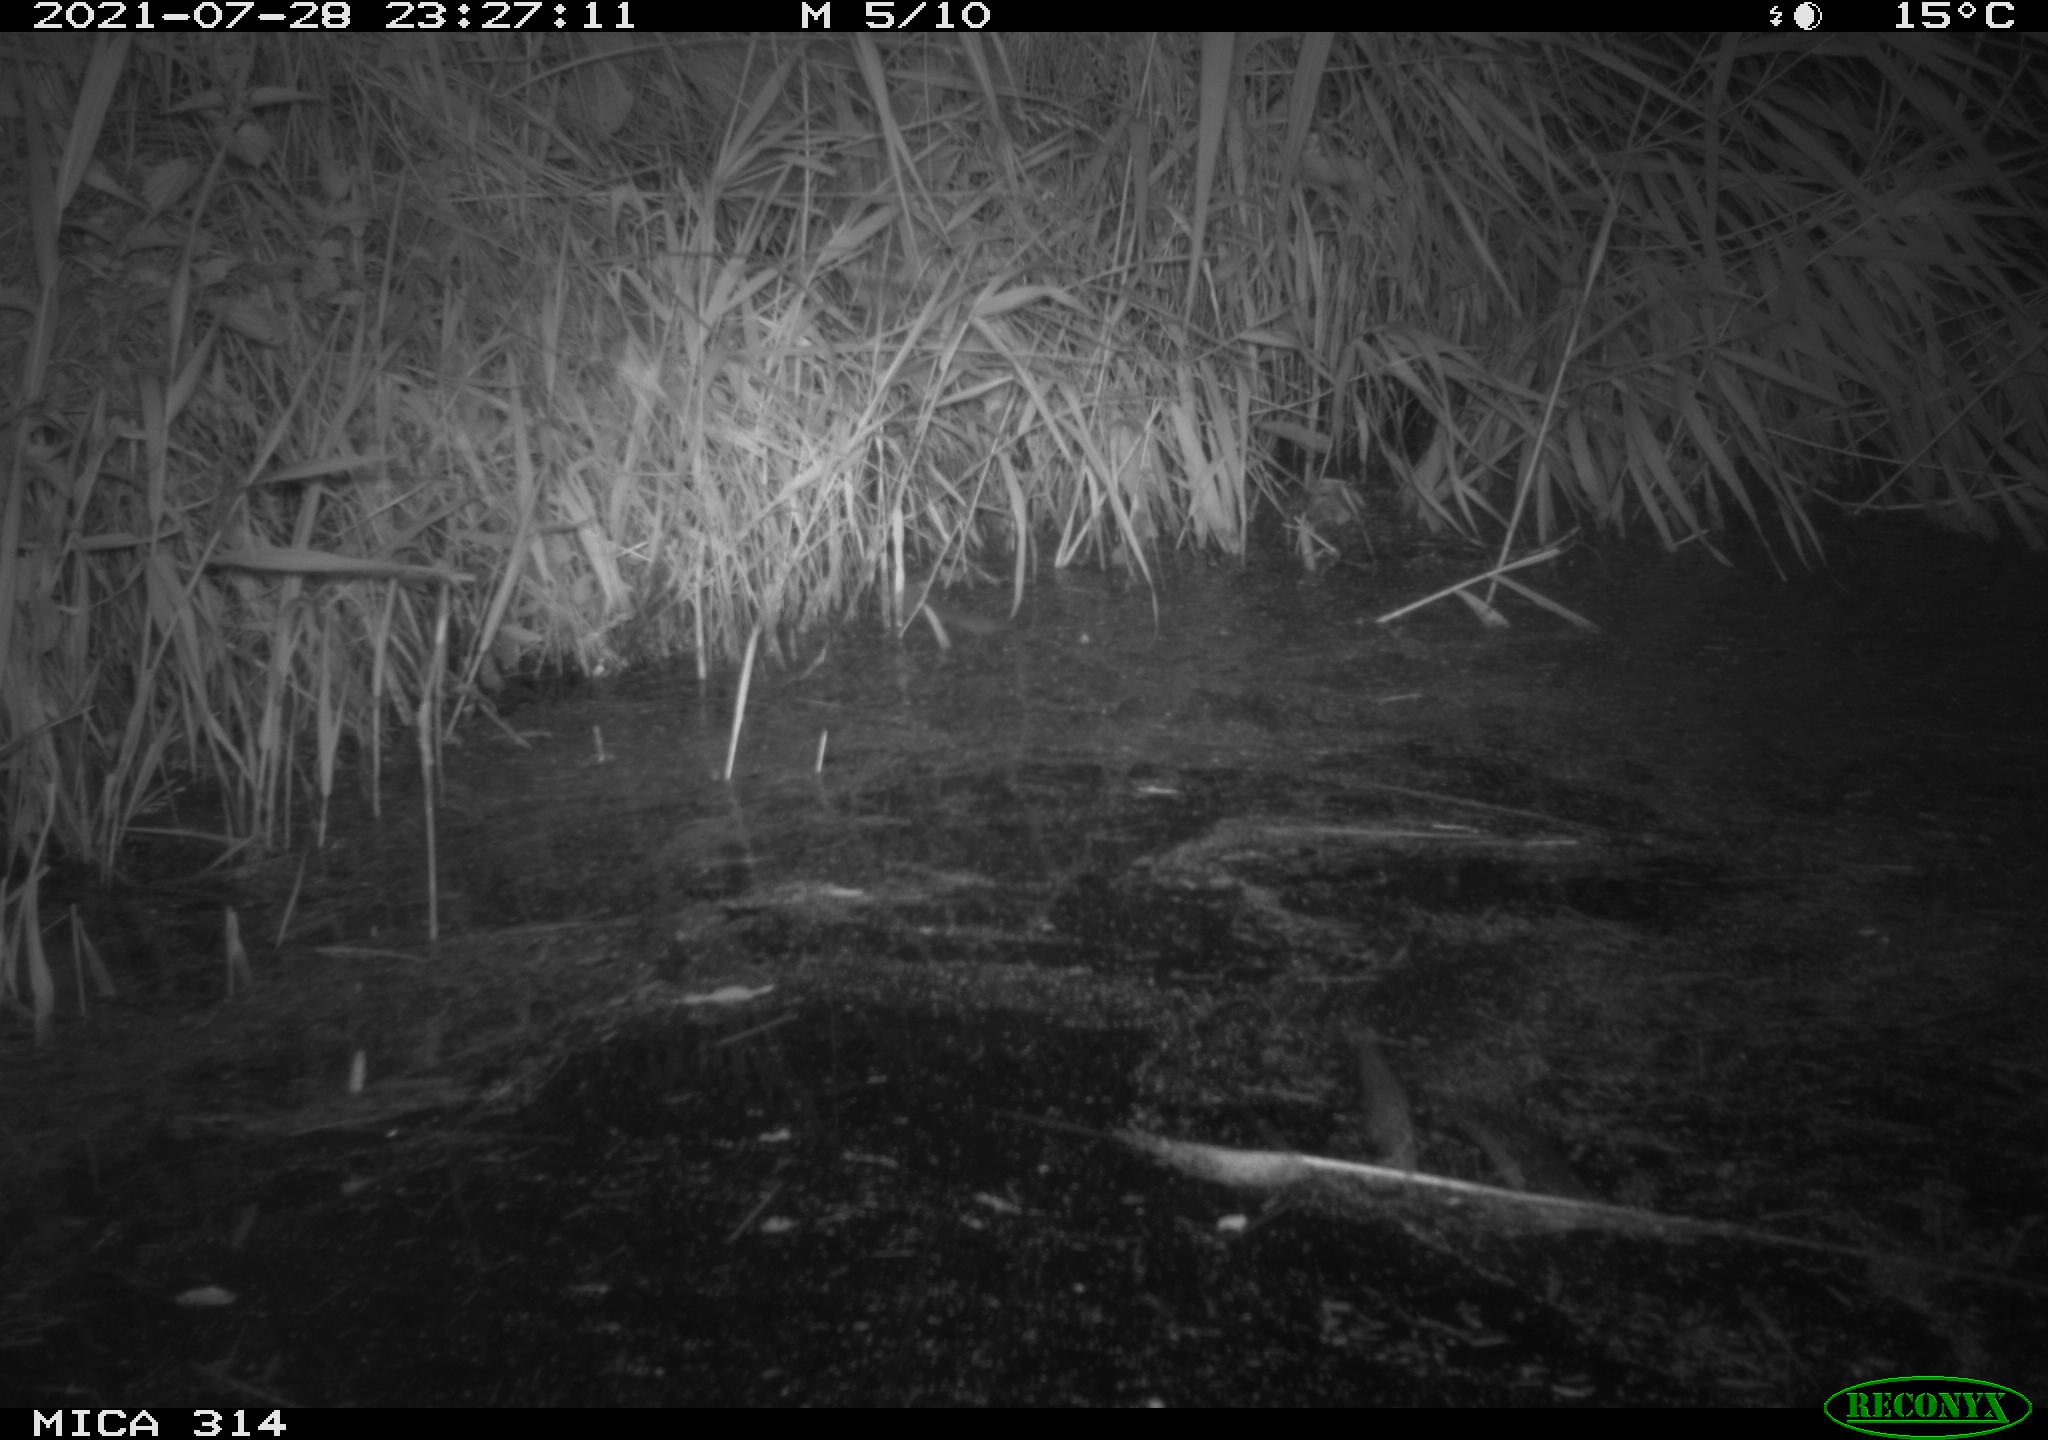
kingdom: Animalia
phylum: Chordata
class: Mammalia
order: Rodentia
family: Muridae
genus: Rattus
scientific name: Rattus norvegicus
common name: Brown rat
